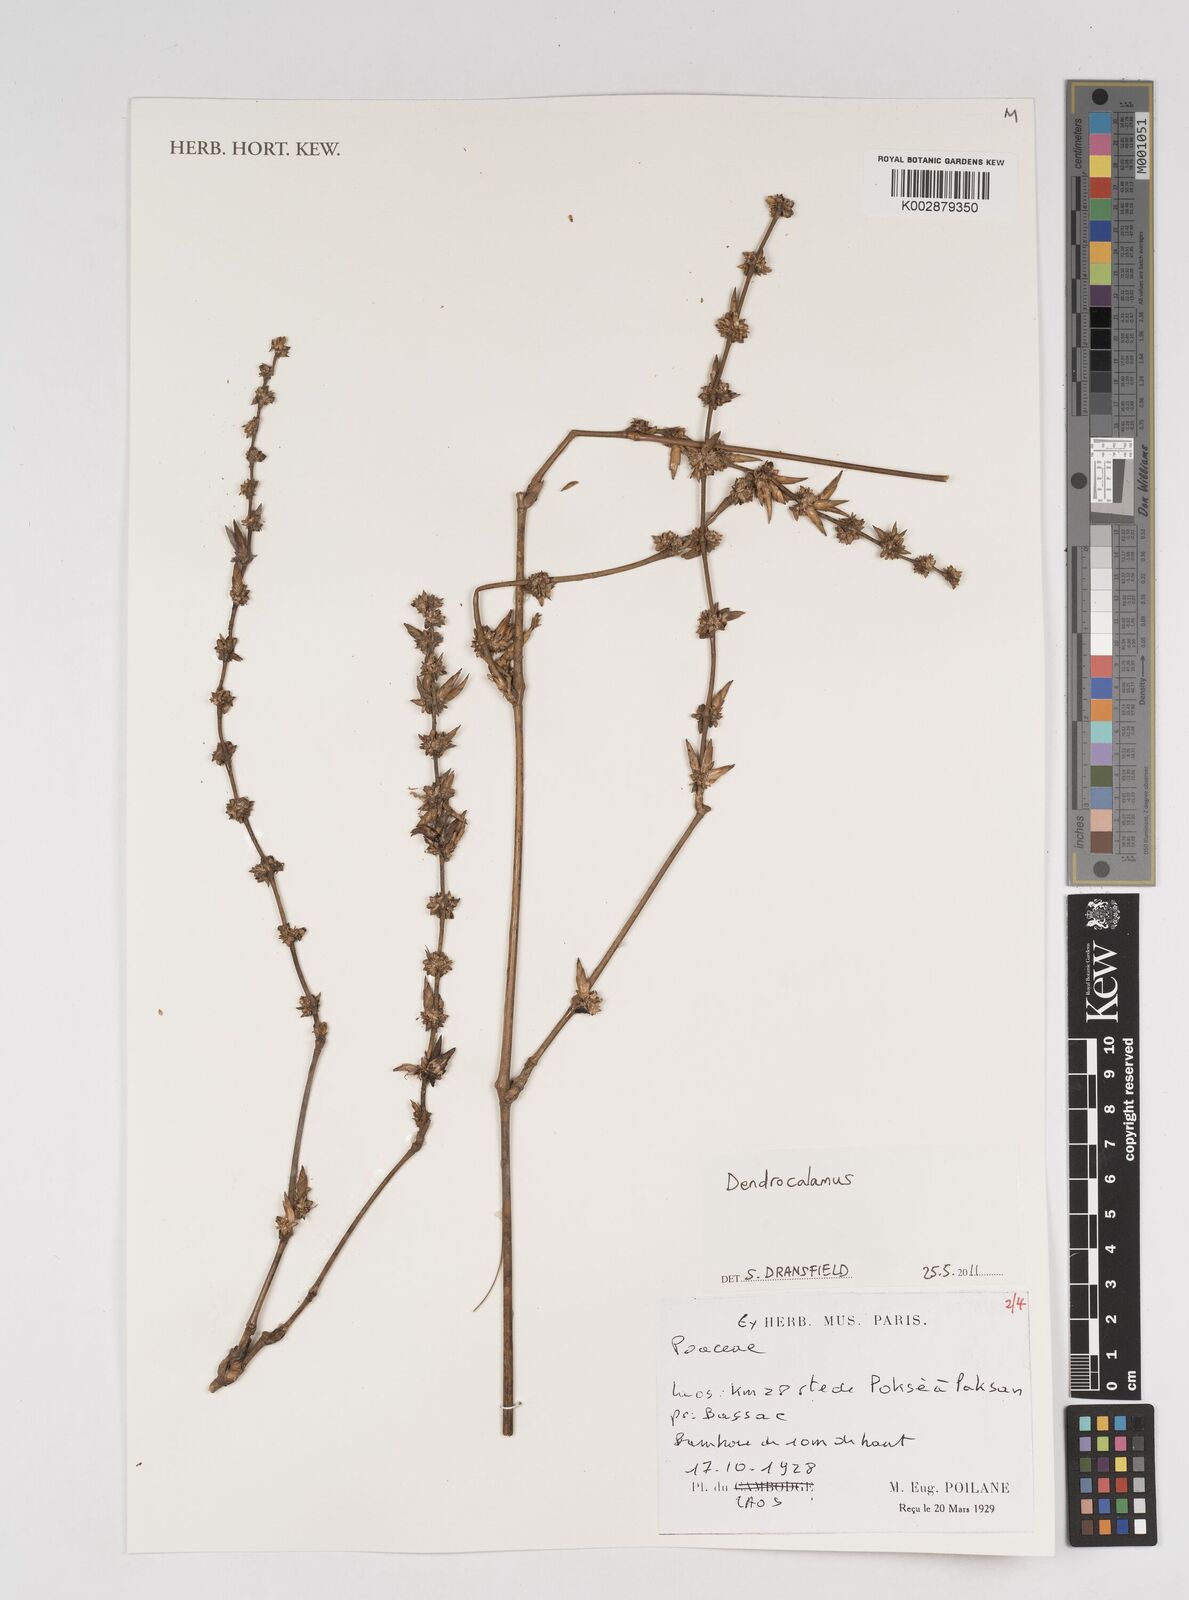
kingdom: Plantae
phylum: Tracheophyta
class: Liliopsida
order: Poales
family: Poaceae
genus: Dendrocalamus
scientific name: Dendrocalamus
